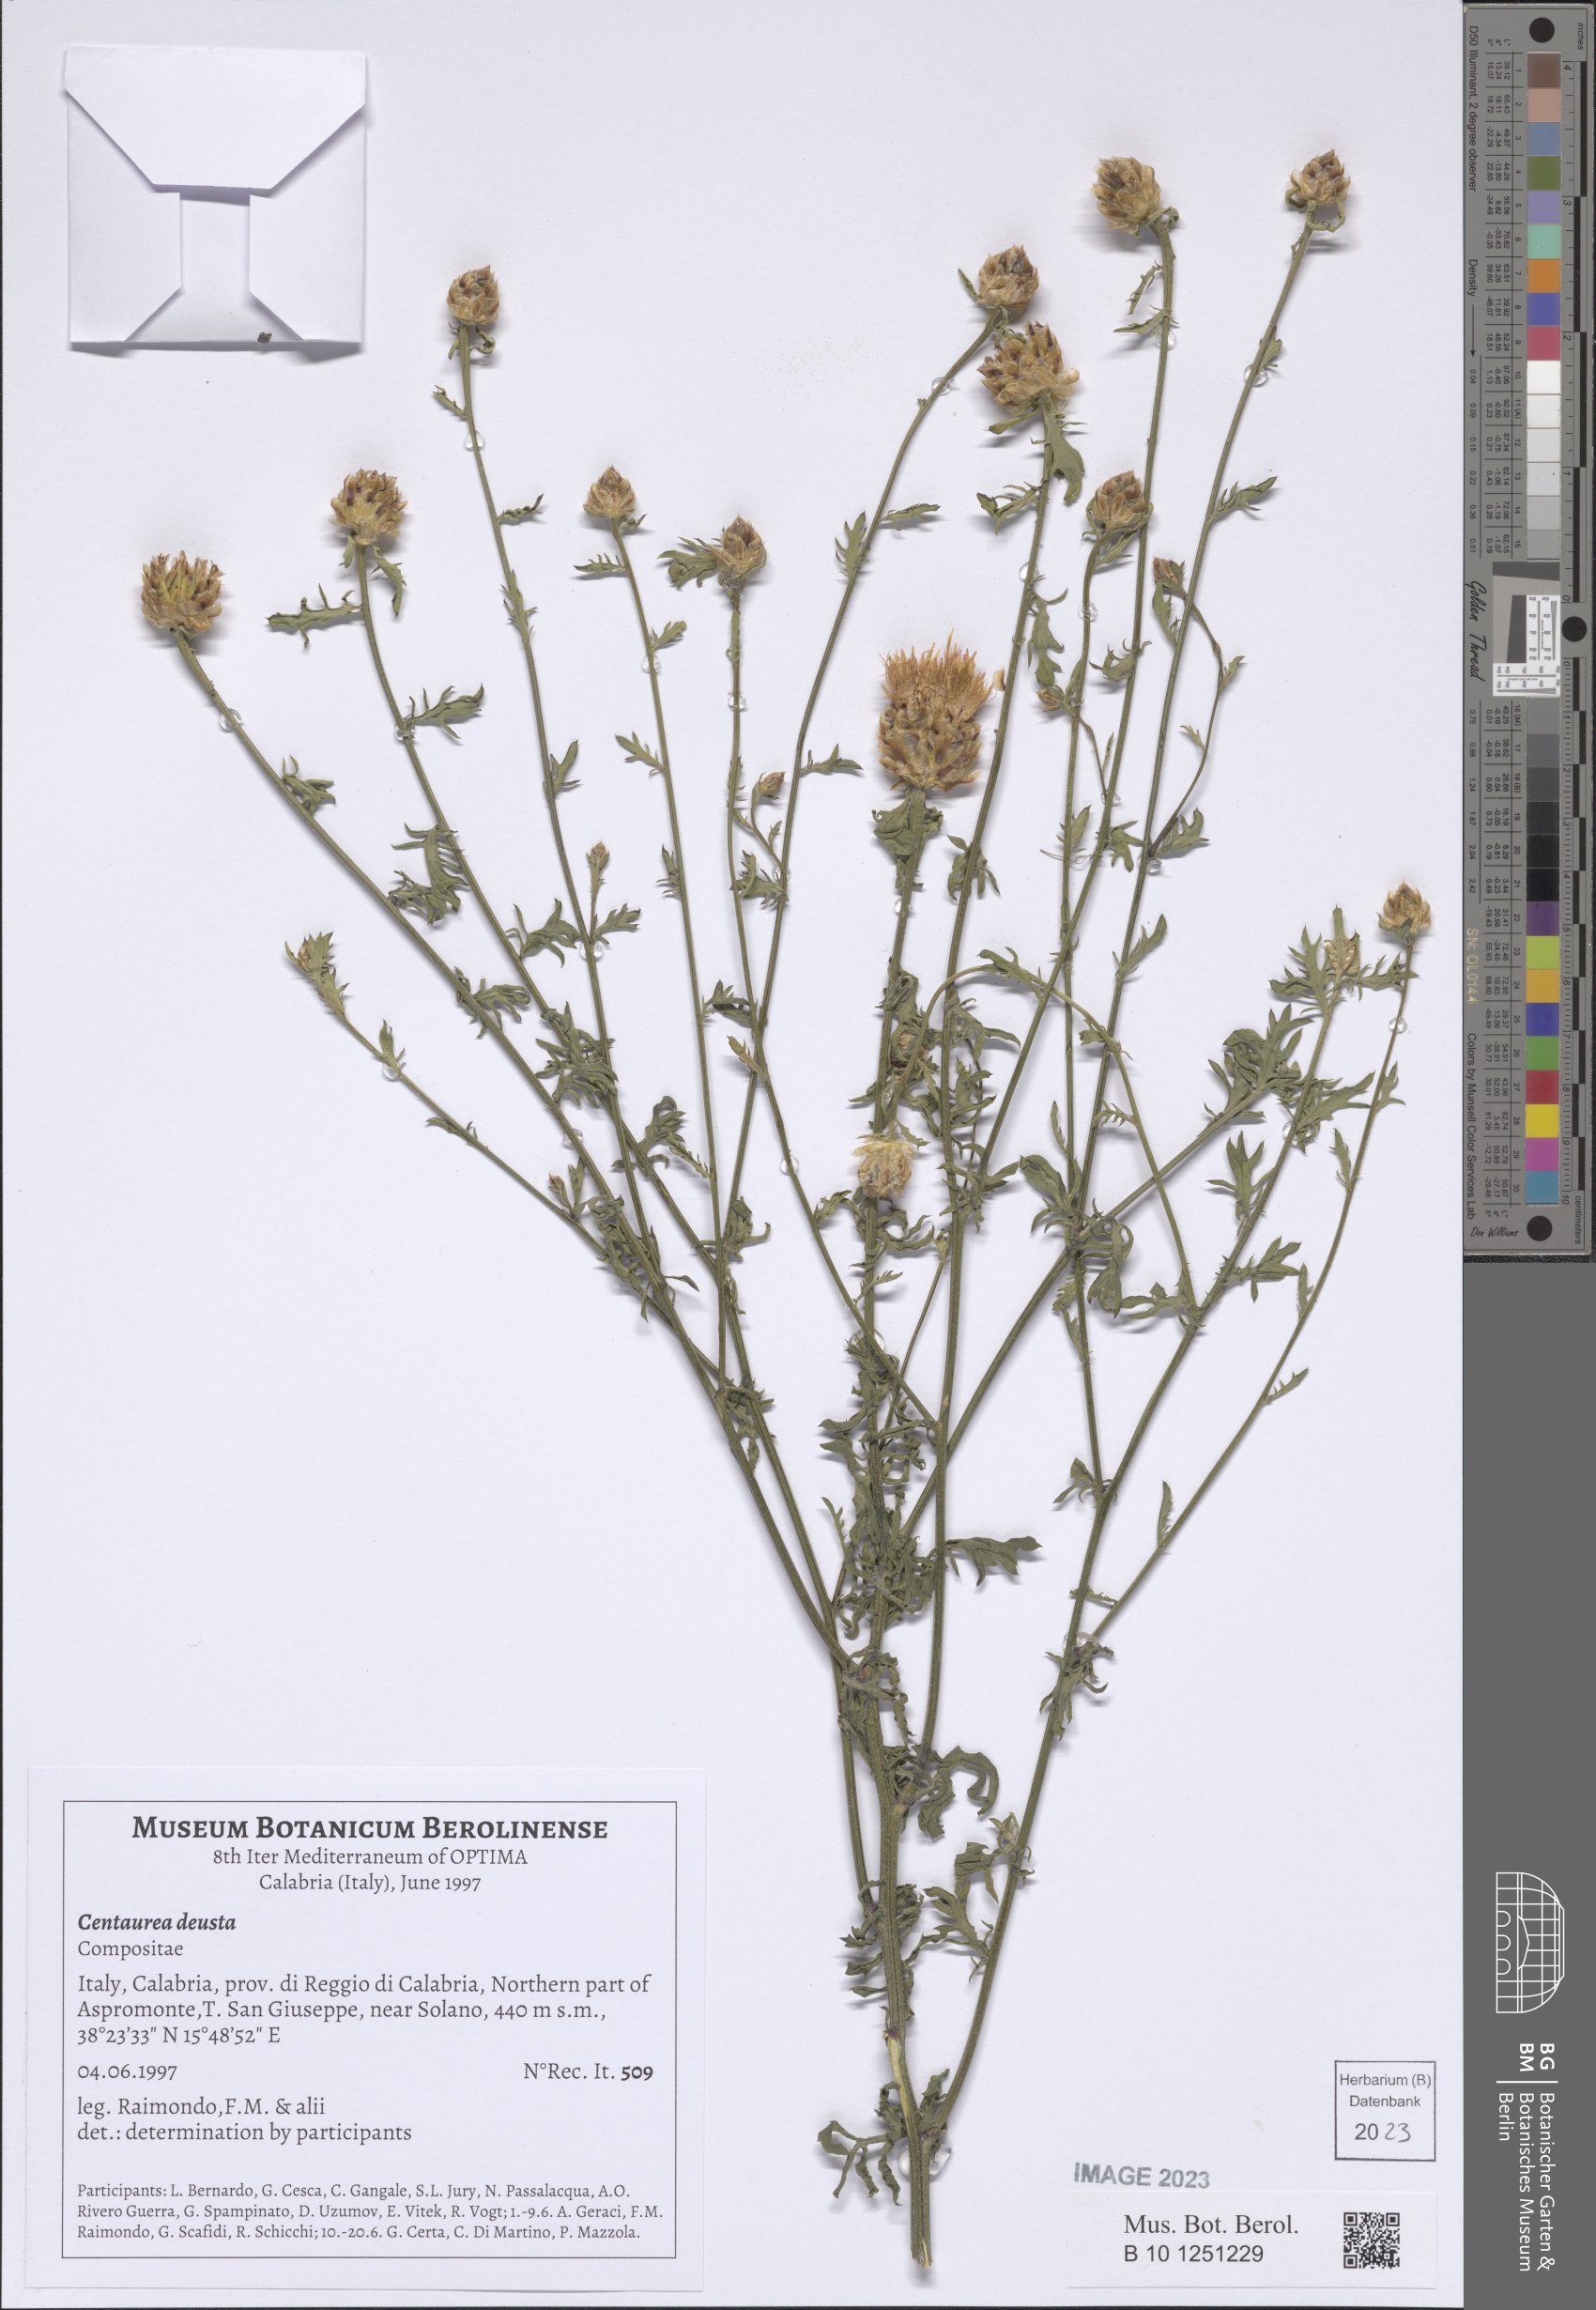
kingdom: Plantae
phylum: Tracheophyta
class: Magnoliopsida
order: Asterales
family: Asteraceae
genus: Centaurea
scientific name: Centaurea deusta
